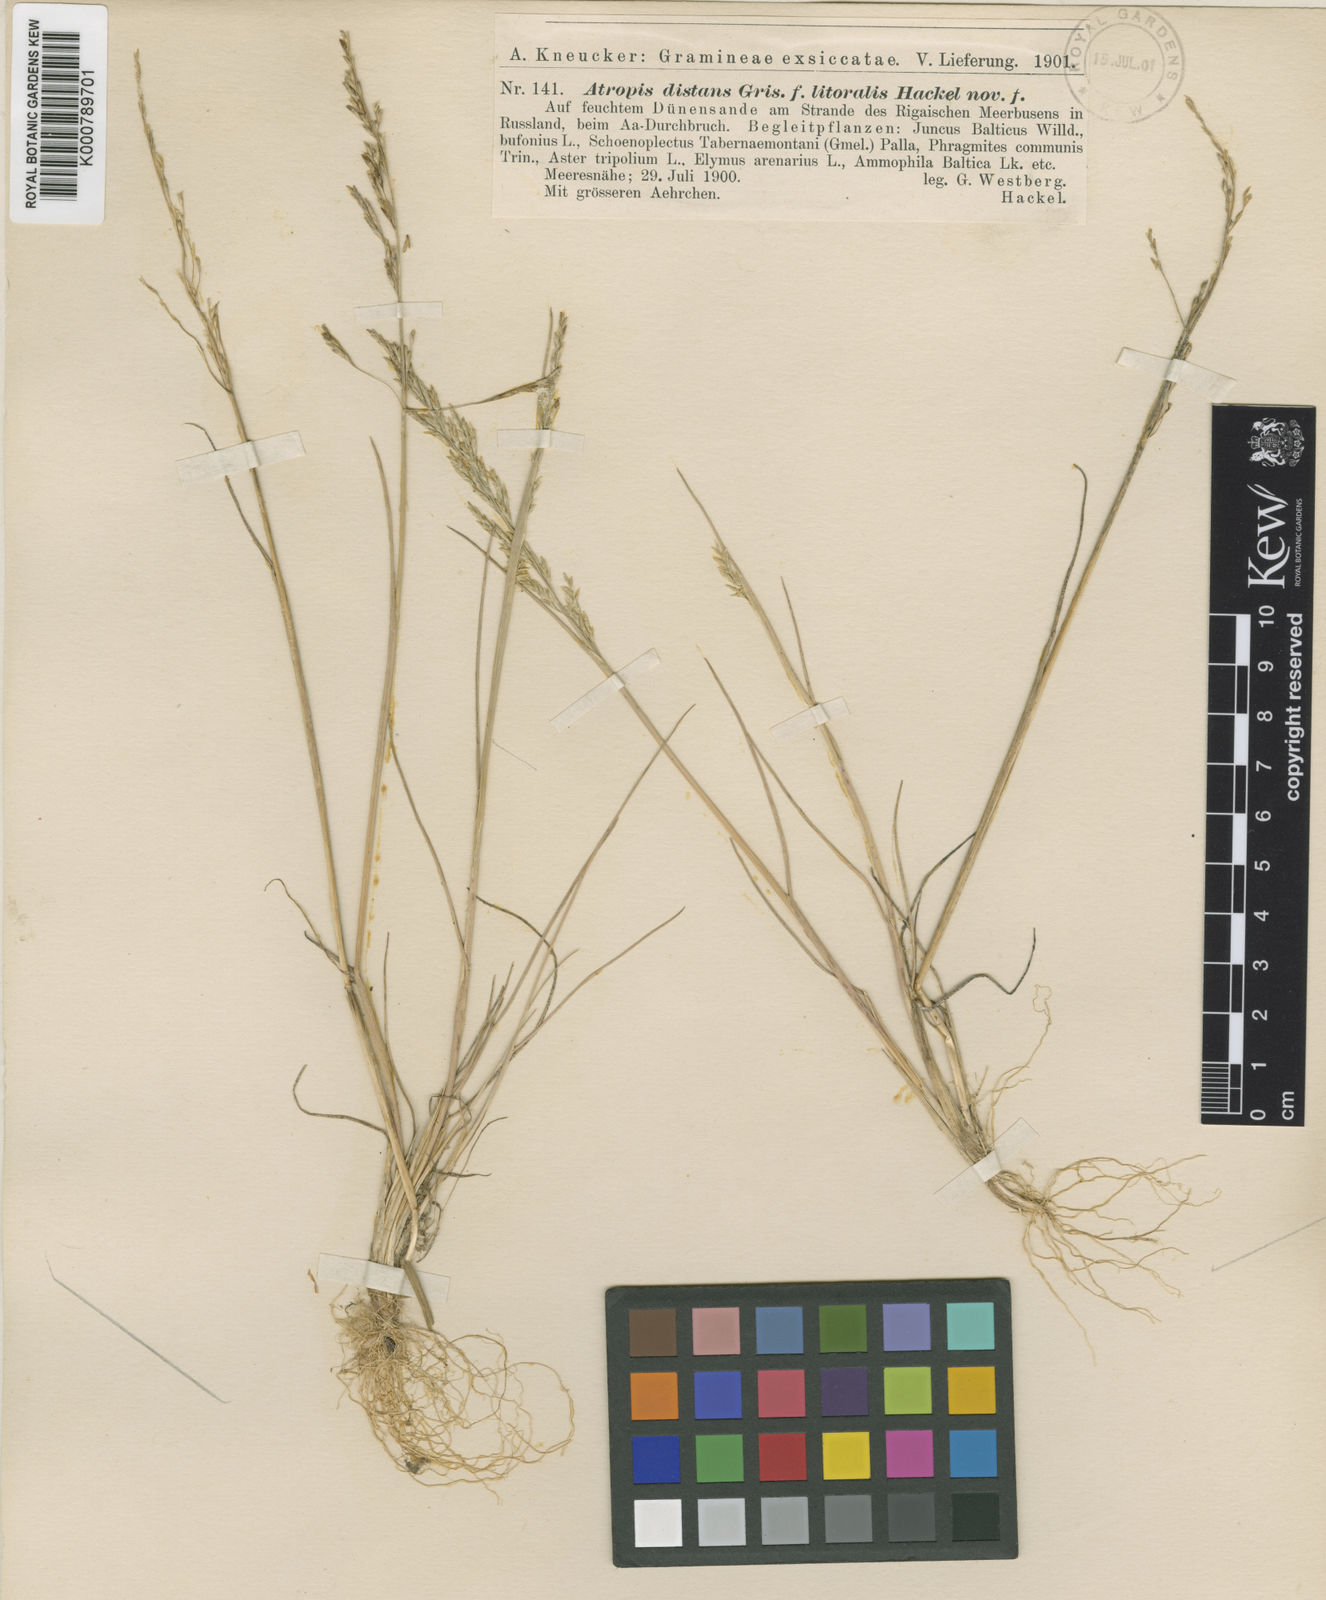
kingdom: Plantae
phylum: Tracheophyta
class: Liliopsida
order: Poales
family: Poaceae
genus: Puccinellia
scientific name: Puccinellia distans
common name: Weeping alkaligrass
